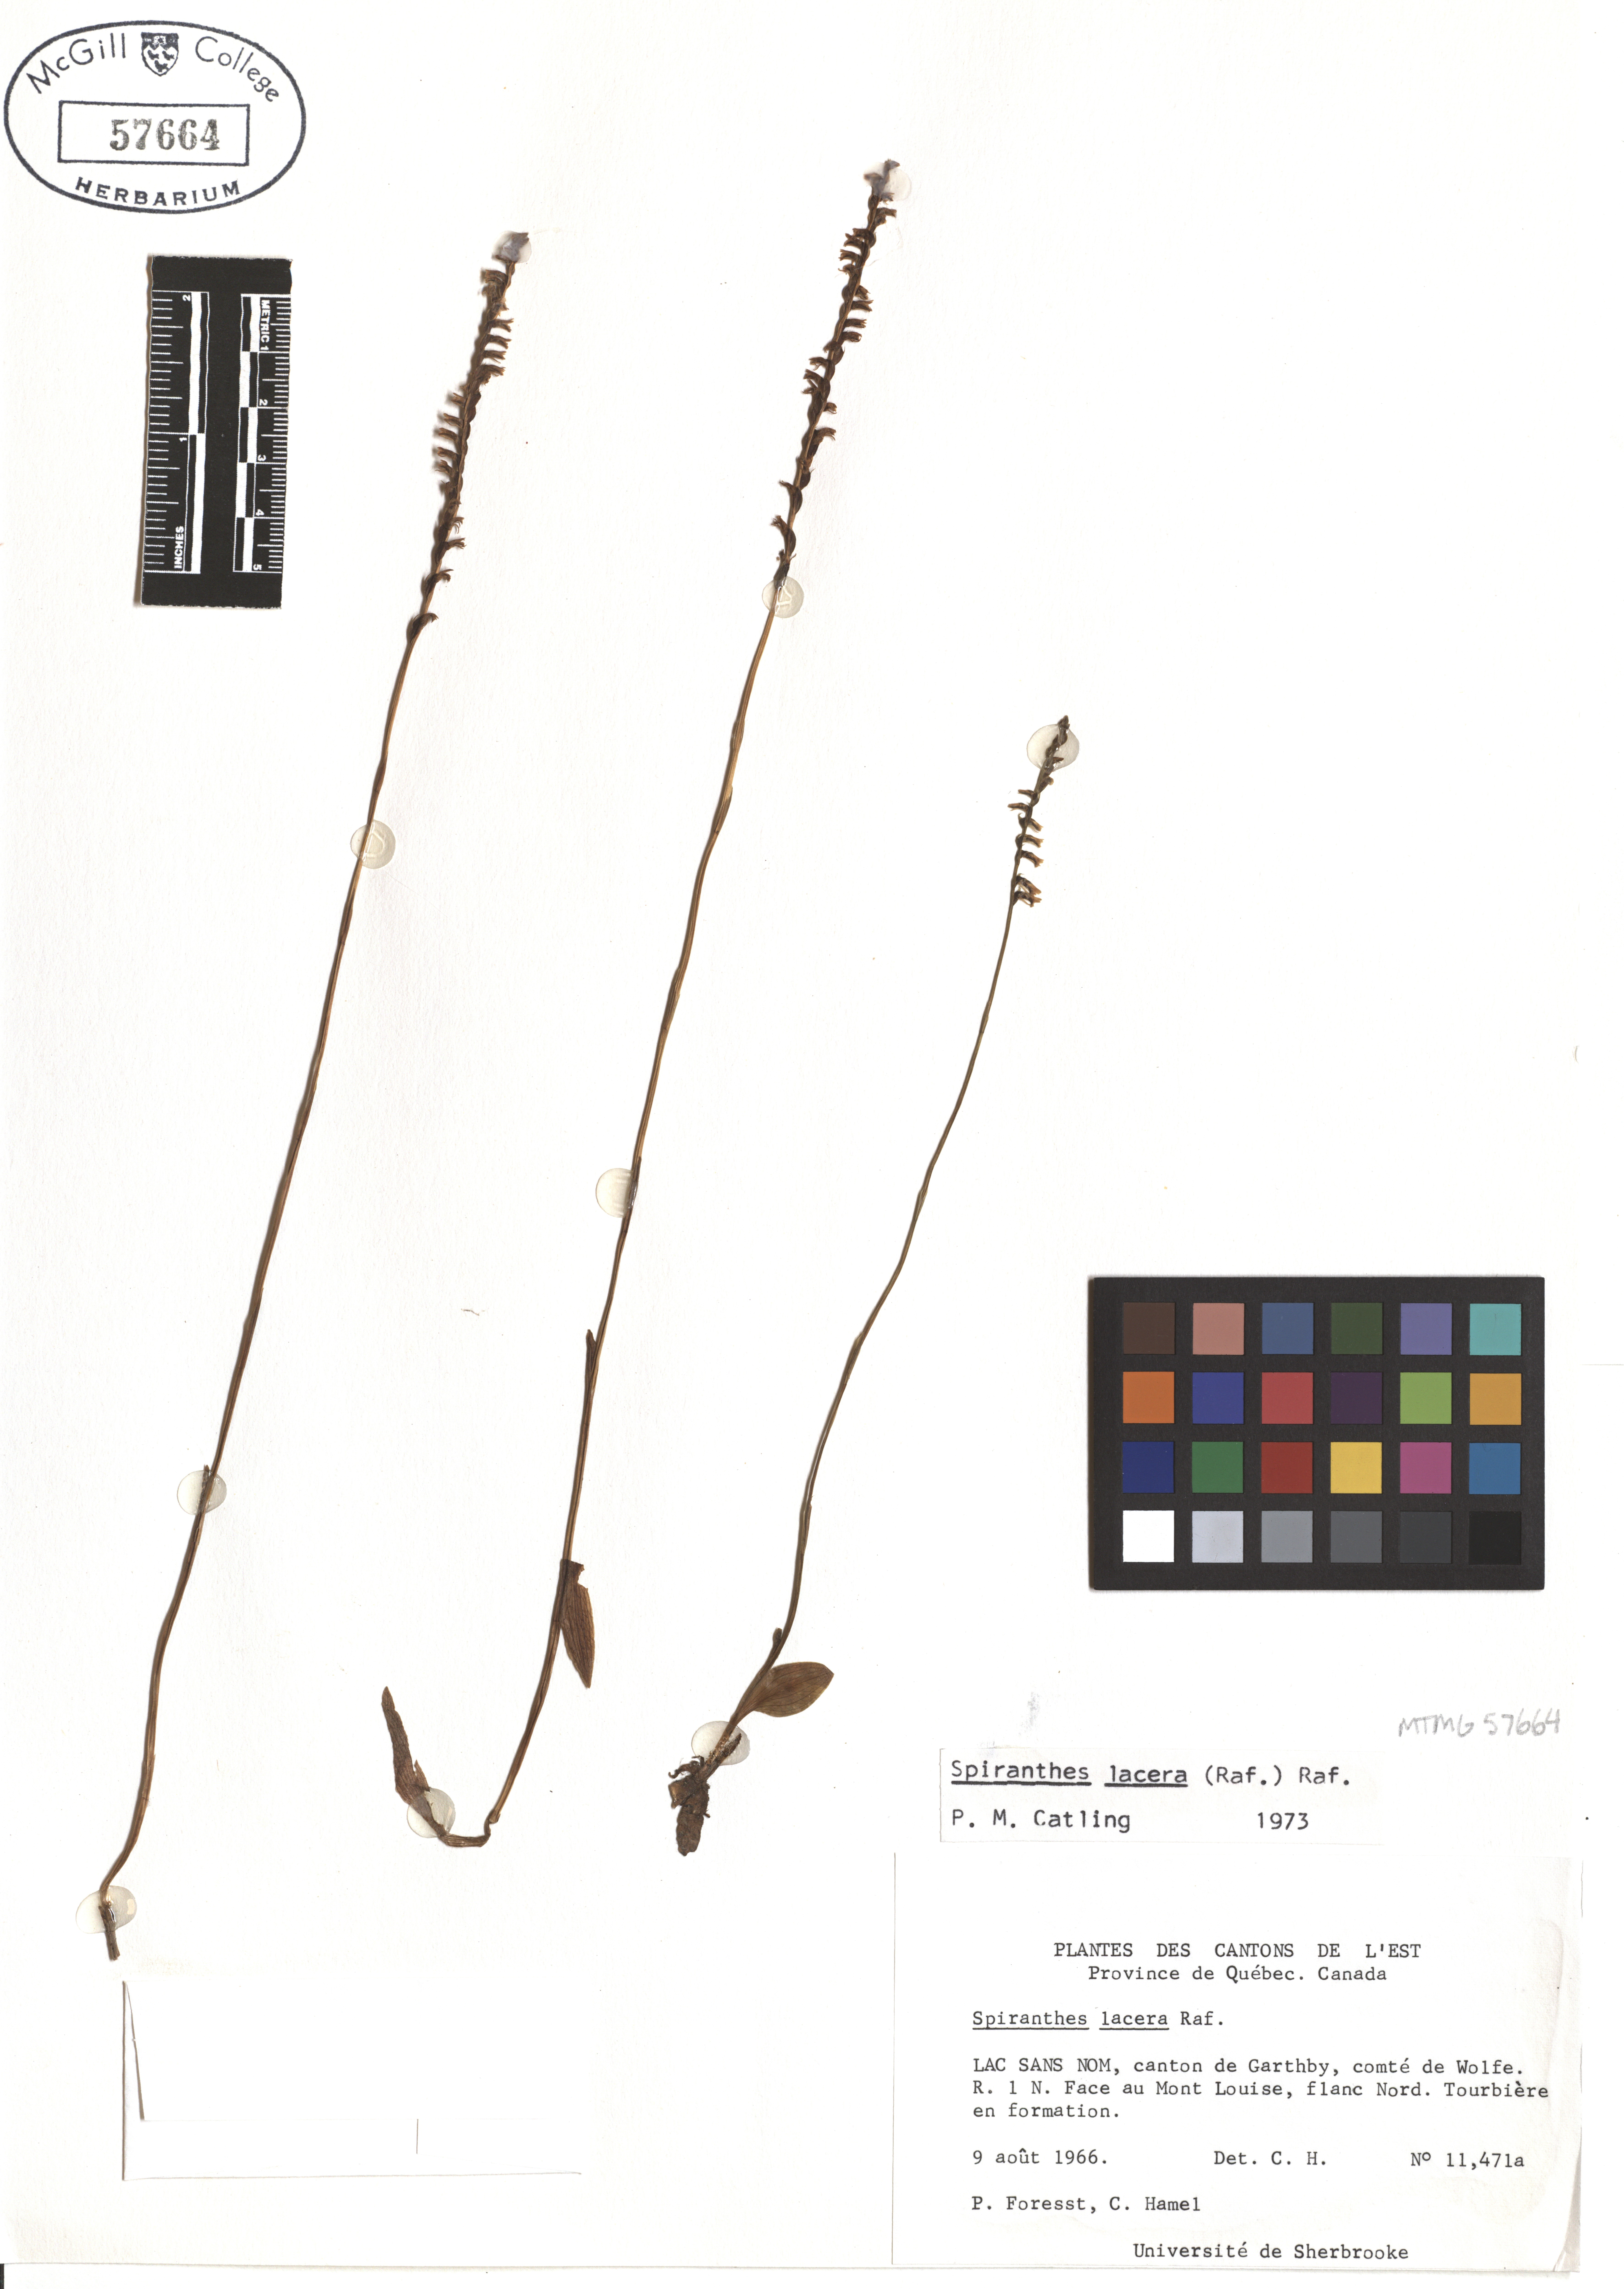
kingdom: Plantae
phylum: Tracheophyta
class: Liliopsida
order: Asparagales
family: Orchidaceae
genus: Spiranthes
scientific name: Spiranthes lacera
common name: Northern slender ladies'-tresses
